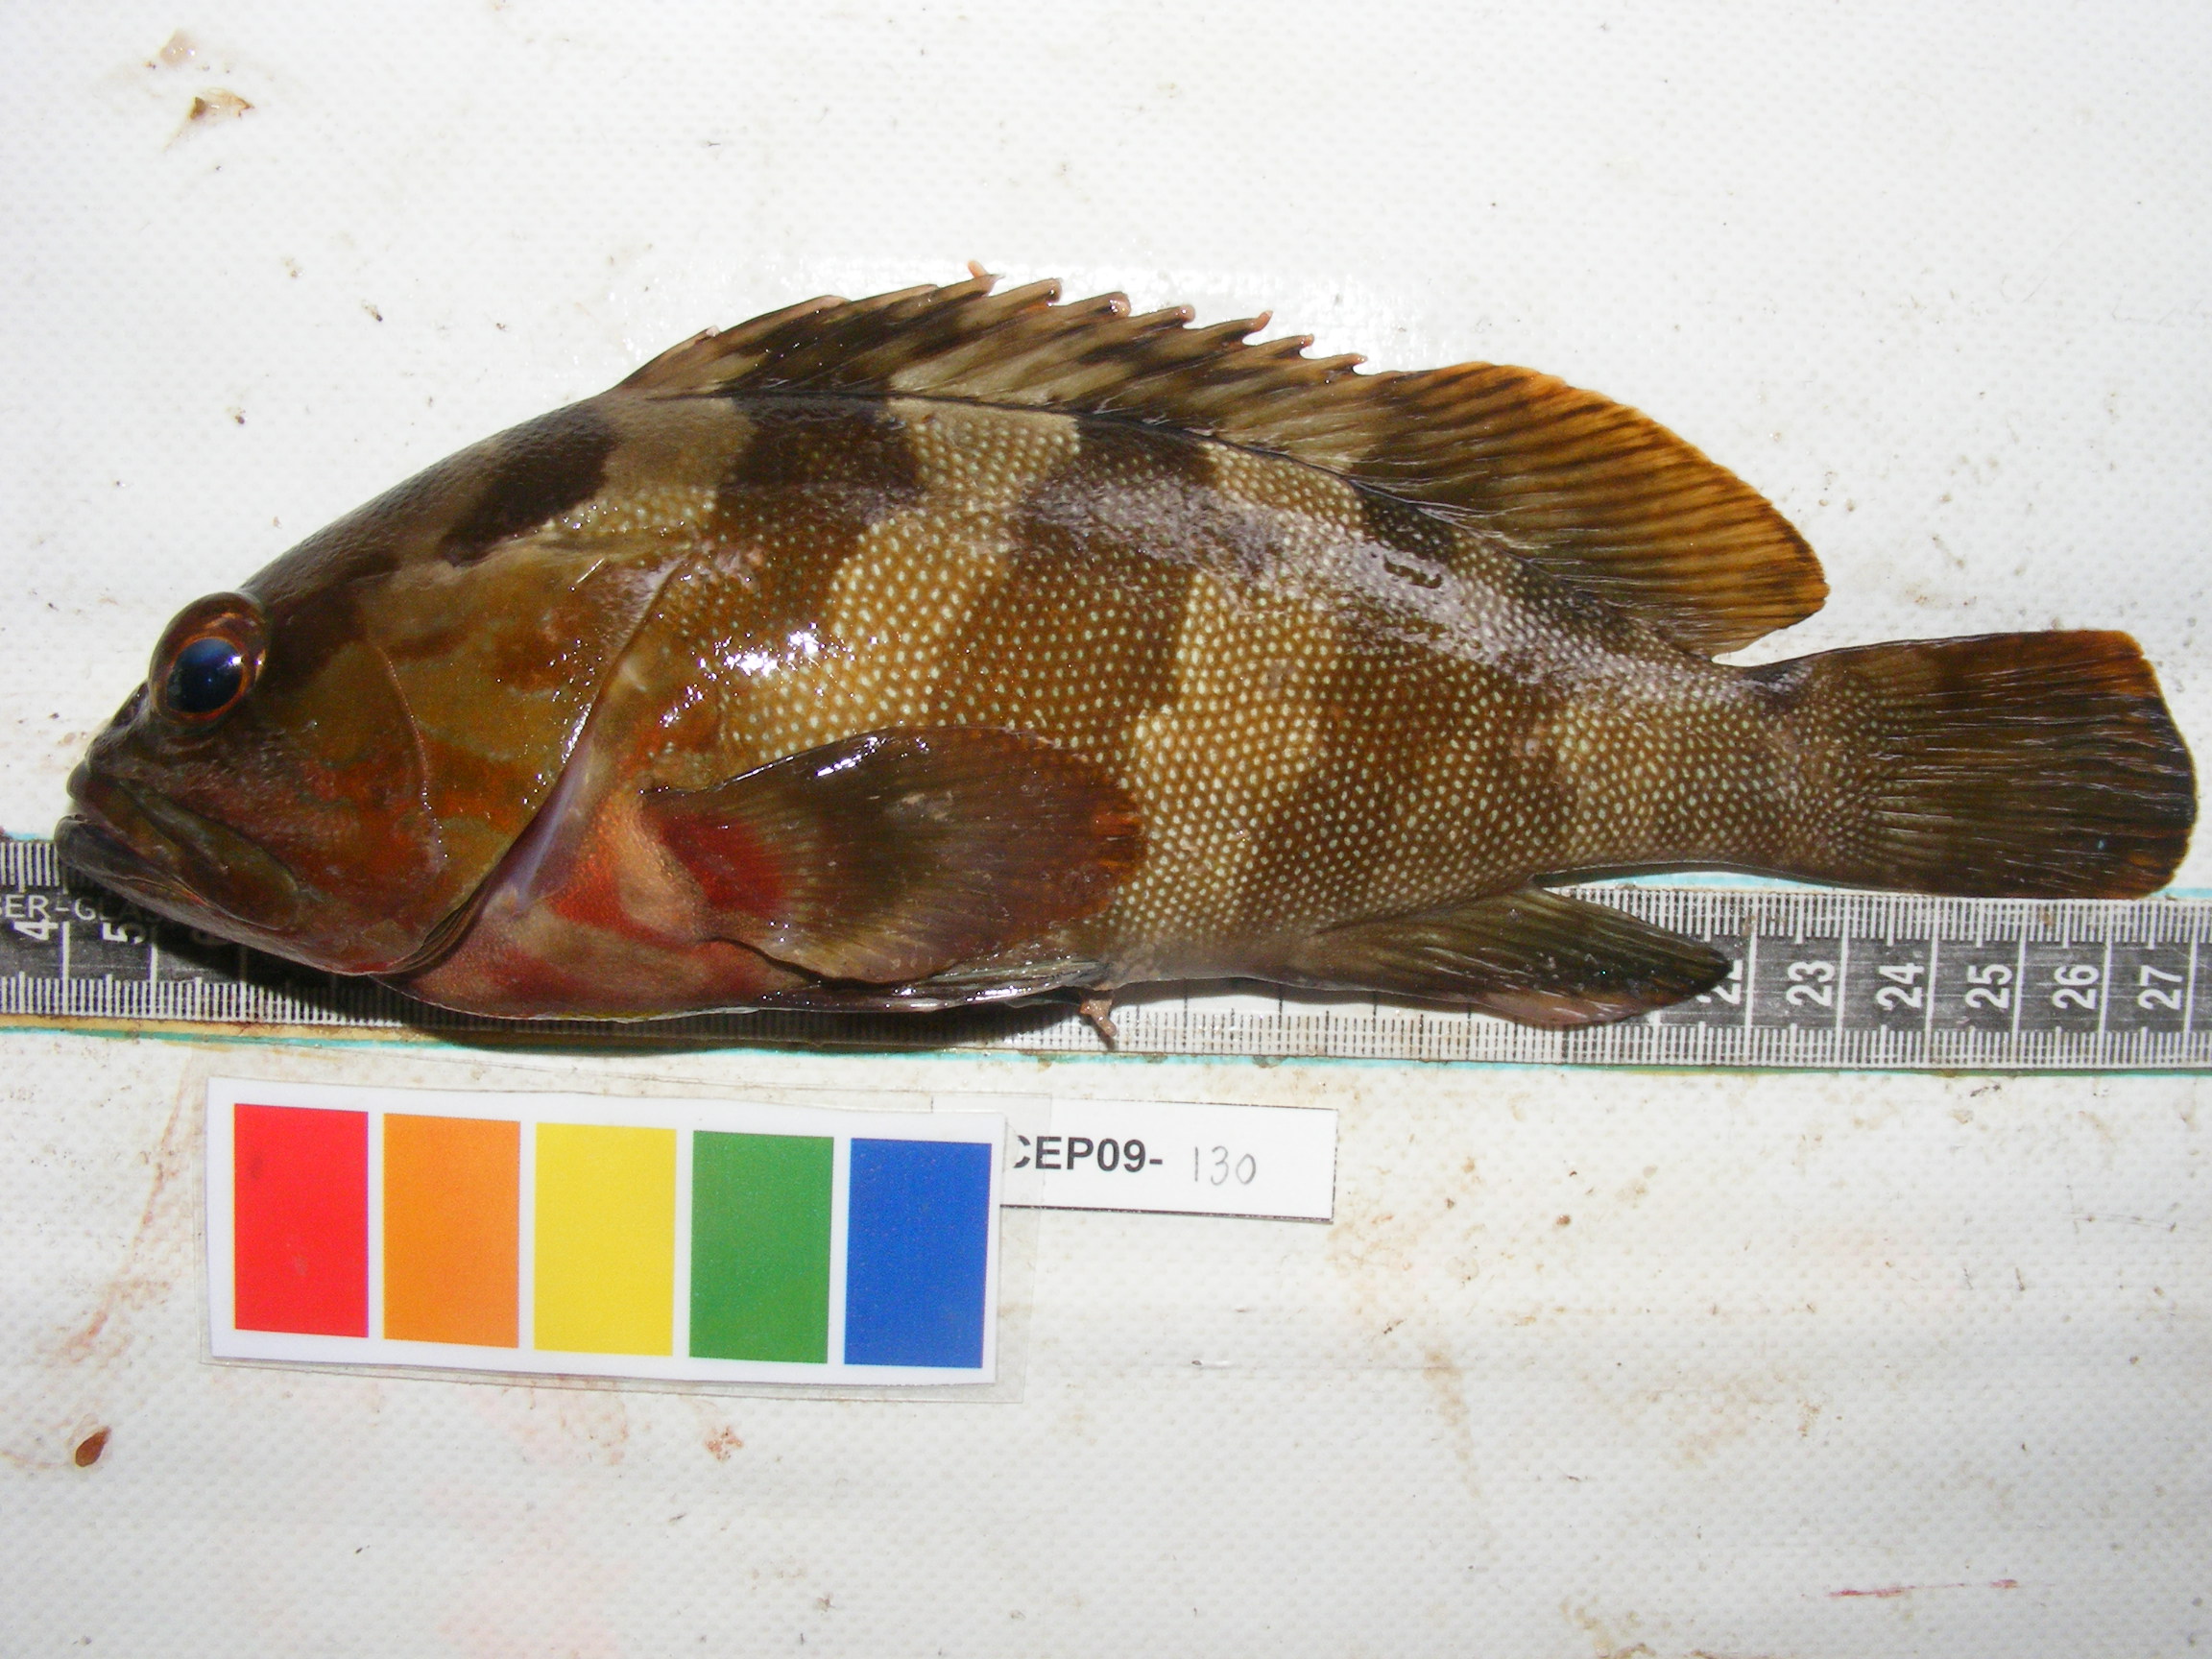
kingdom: Animalia
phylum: Chordata
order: Perciformes
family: Serranidae
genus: Epinephelus
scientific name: Epinephelus rivulatus
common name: Halfmoon grouper
